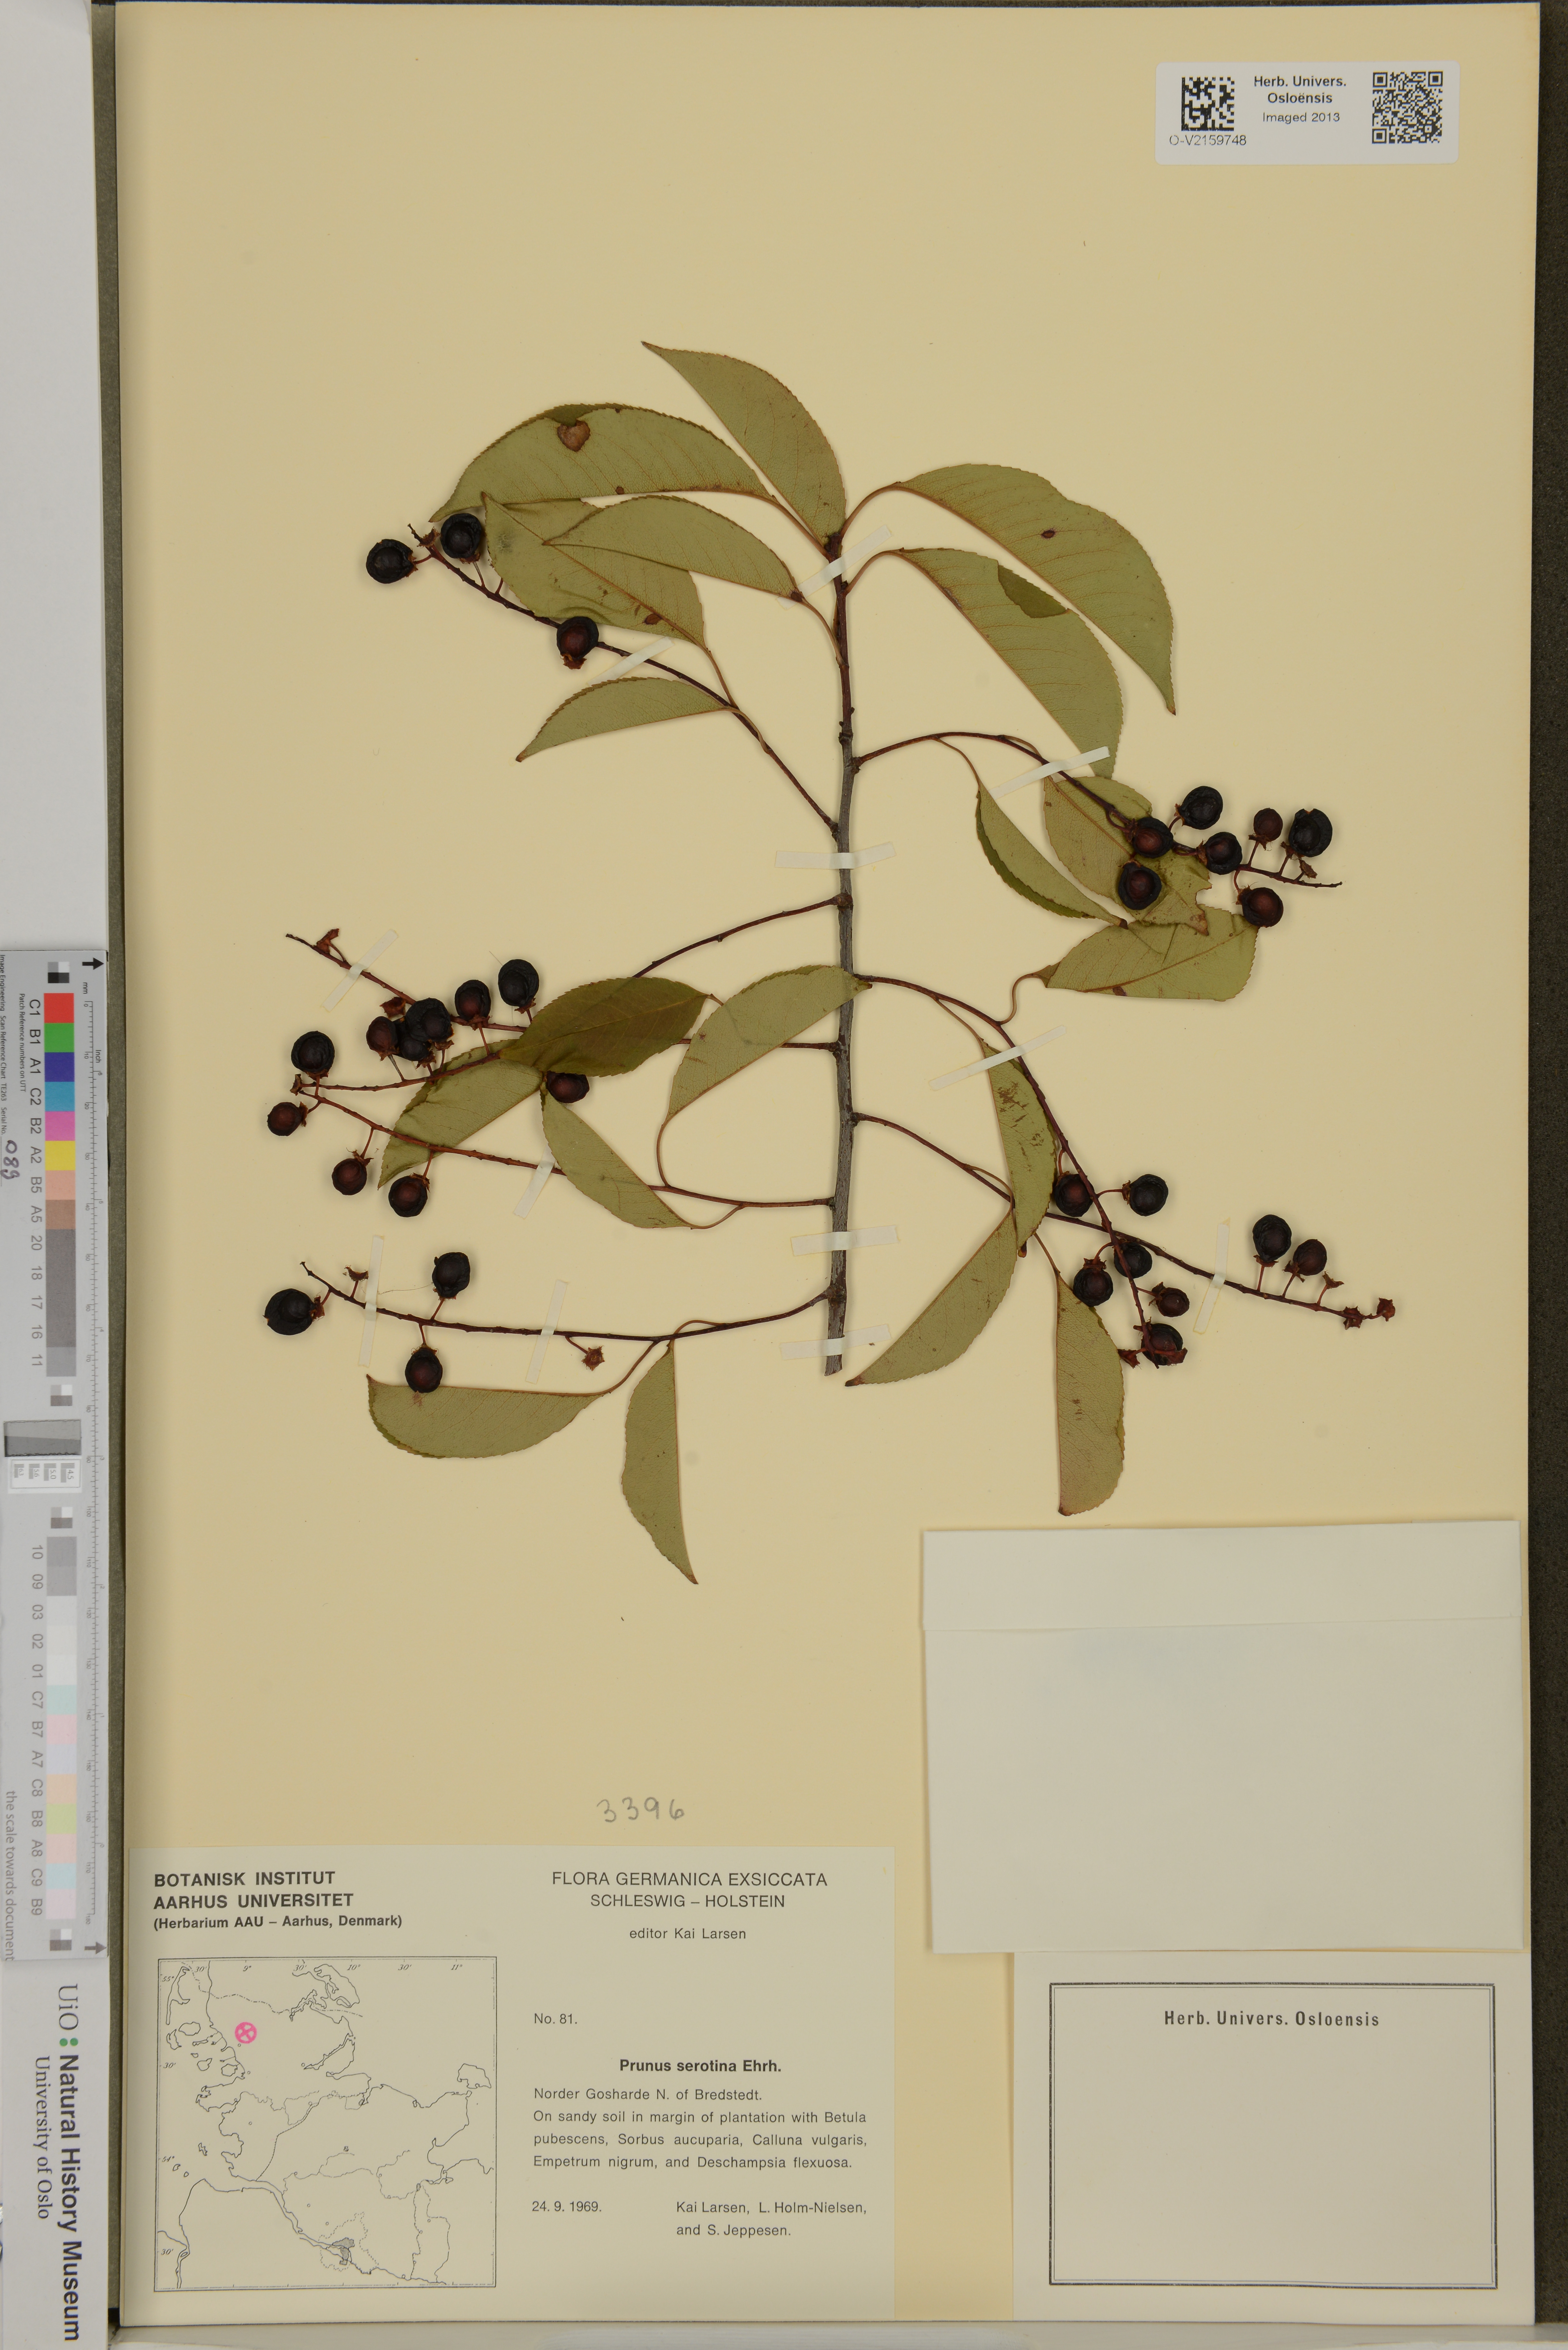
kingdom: Plantae
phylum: Tracheophyta
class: Magnoliopsida
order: Rosales
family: Rosaceae
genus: Prunus
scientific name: Prunus serotina
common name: Black cherry
